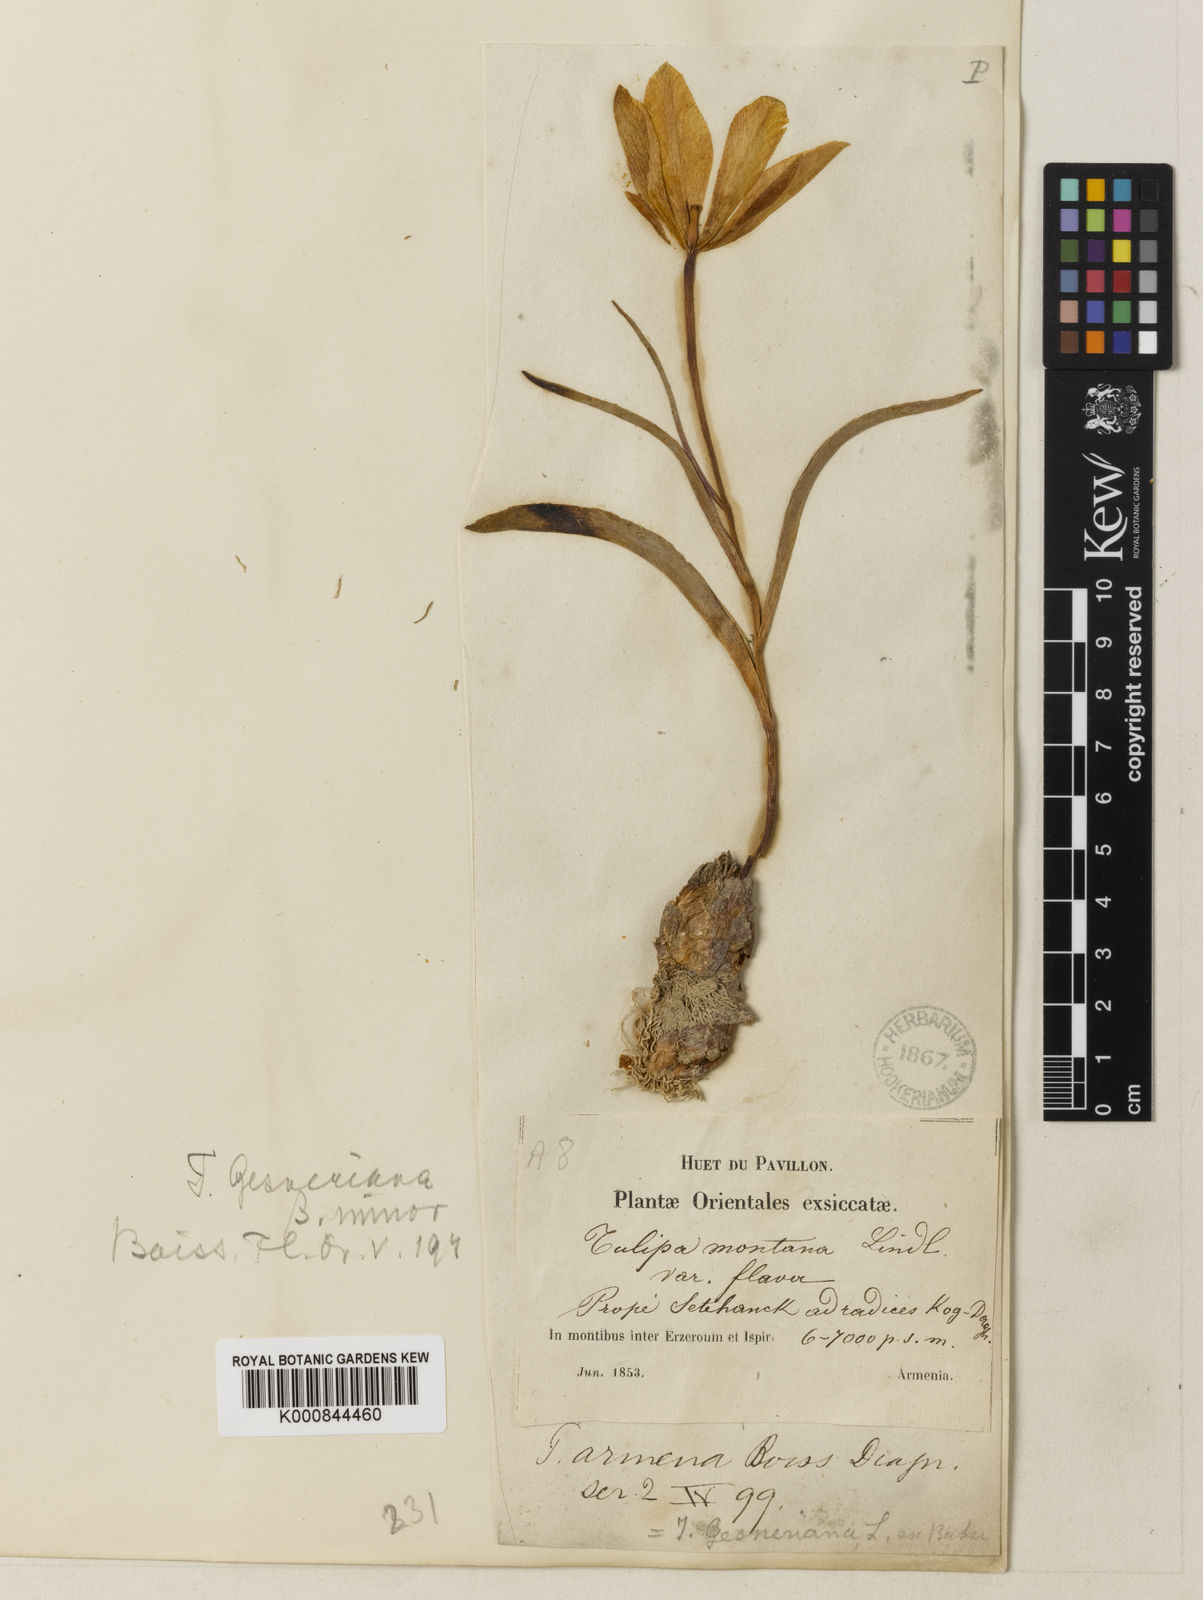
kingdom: Plantae
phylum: Tracheophyta
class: Liliopsida
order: Liliales
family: Liliaceae
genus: Tulipa
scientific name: Tulipa armena
